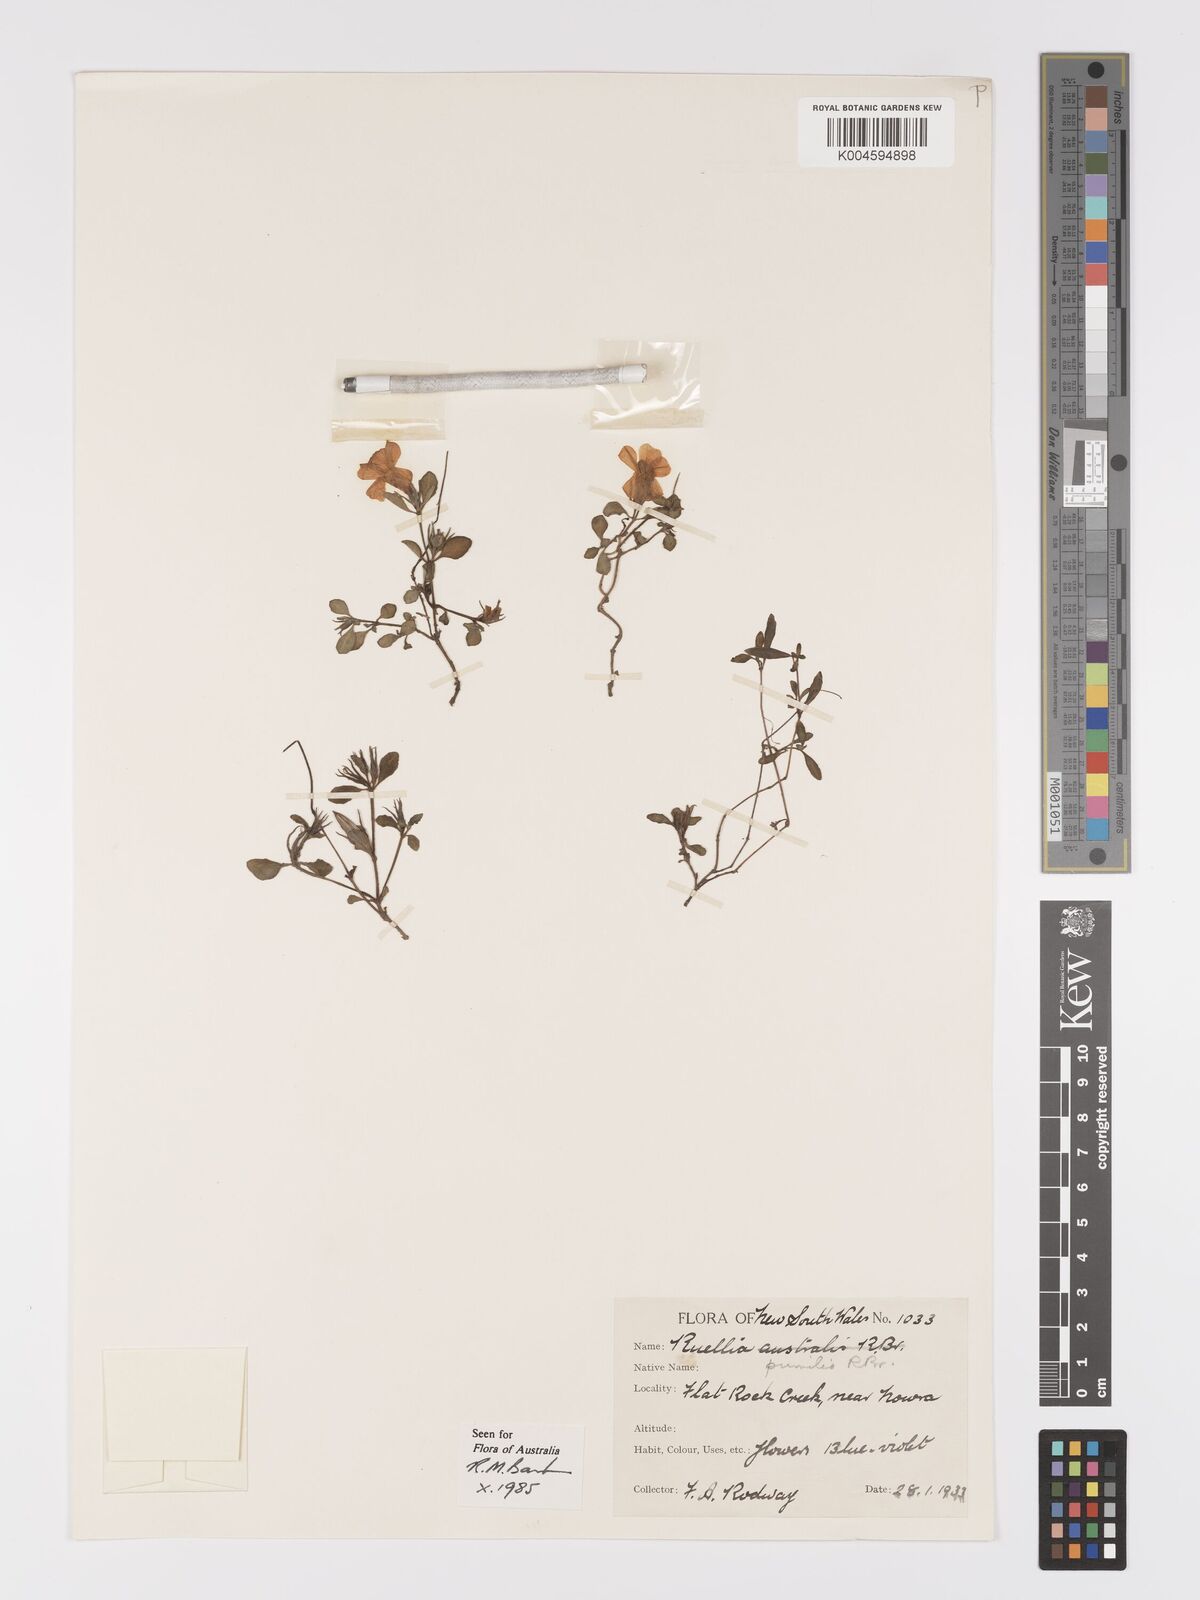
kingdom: Plantae
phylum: Tracheophyta
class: Magnoliopsida
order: Lamiales
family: Acanthaceae
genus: Brunoniella
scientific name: Brunoniella pumilio
